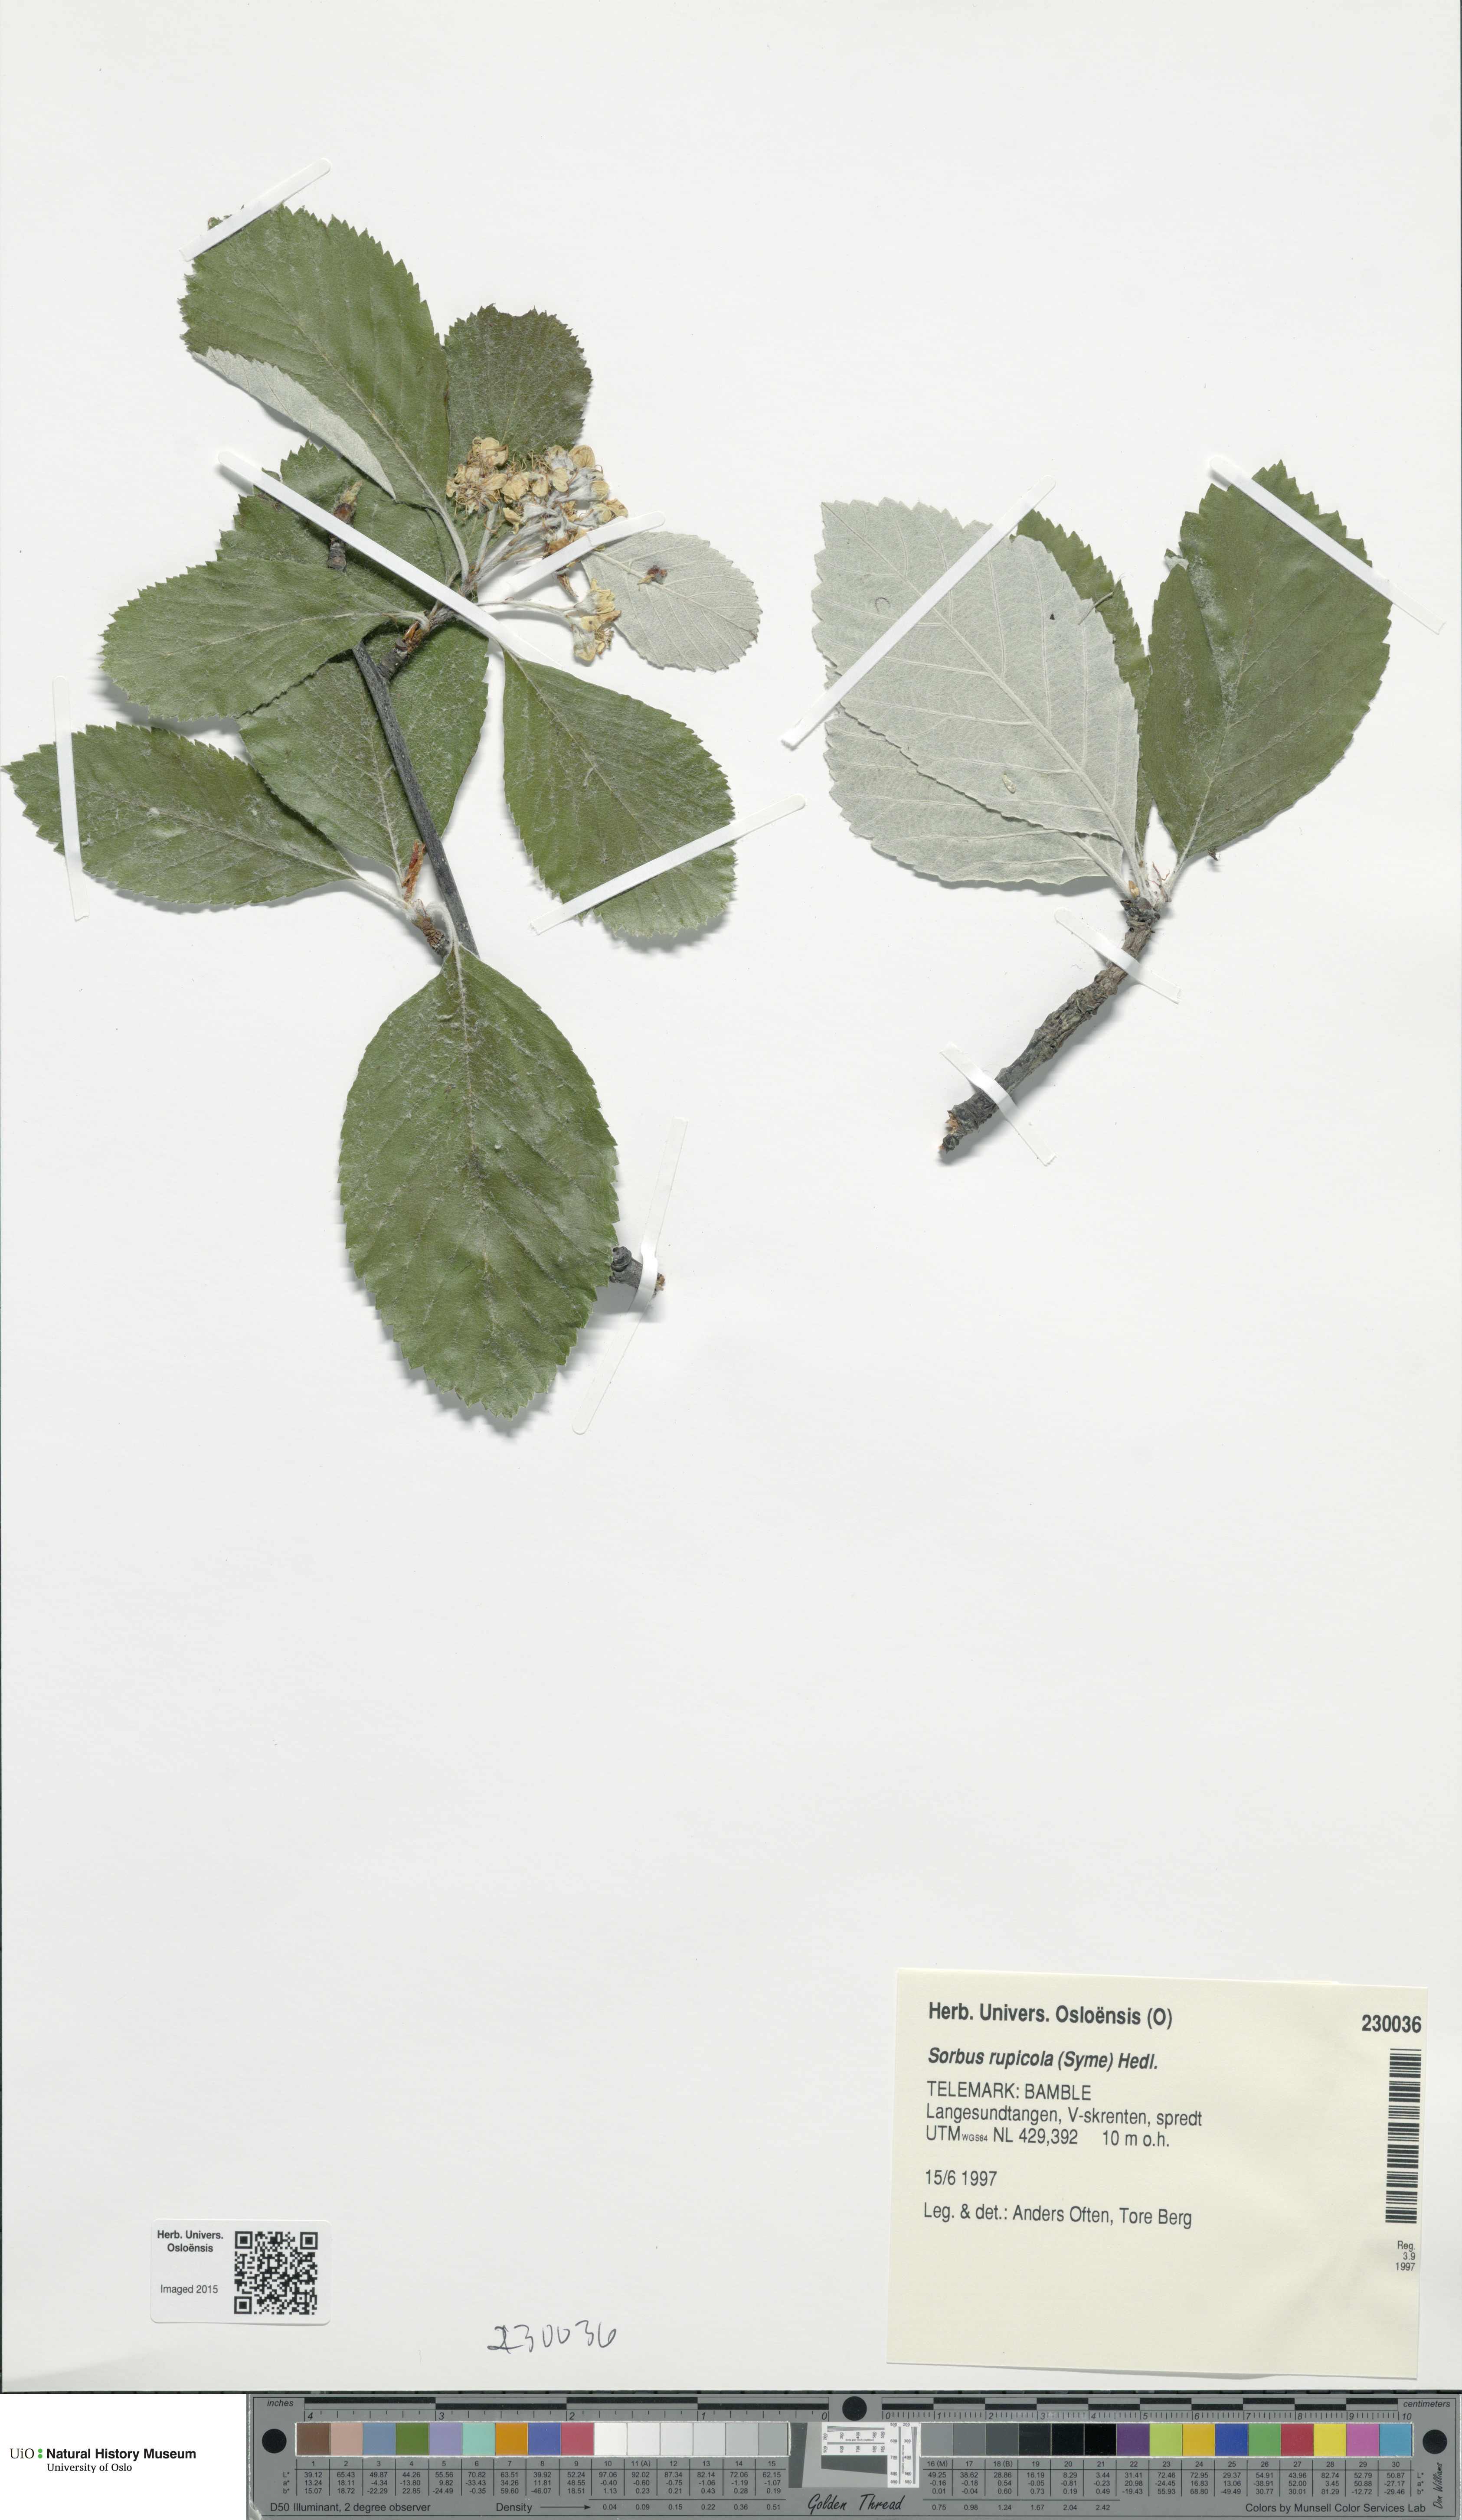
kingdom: Plantae
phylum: Tracheophyta
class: Magnoliopsida
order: Rosales
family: Rosaceae
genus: Aria
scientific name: Aria rupicola
